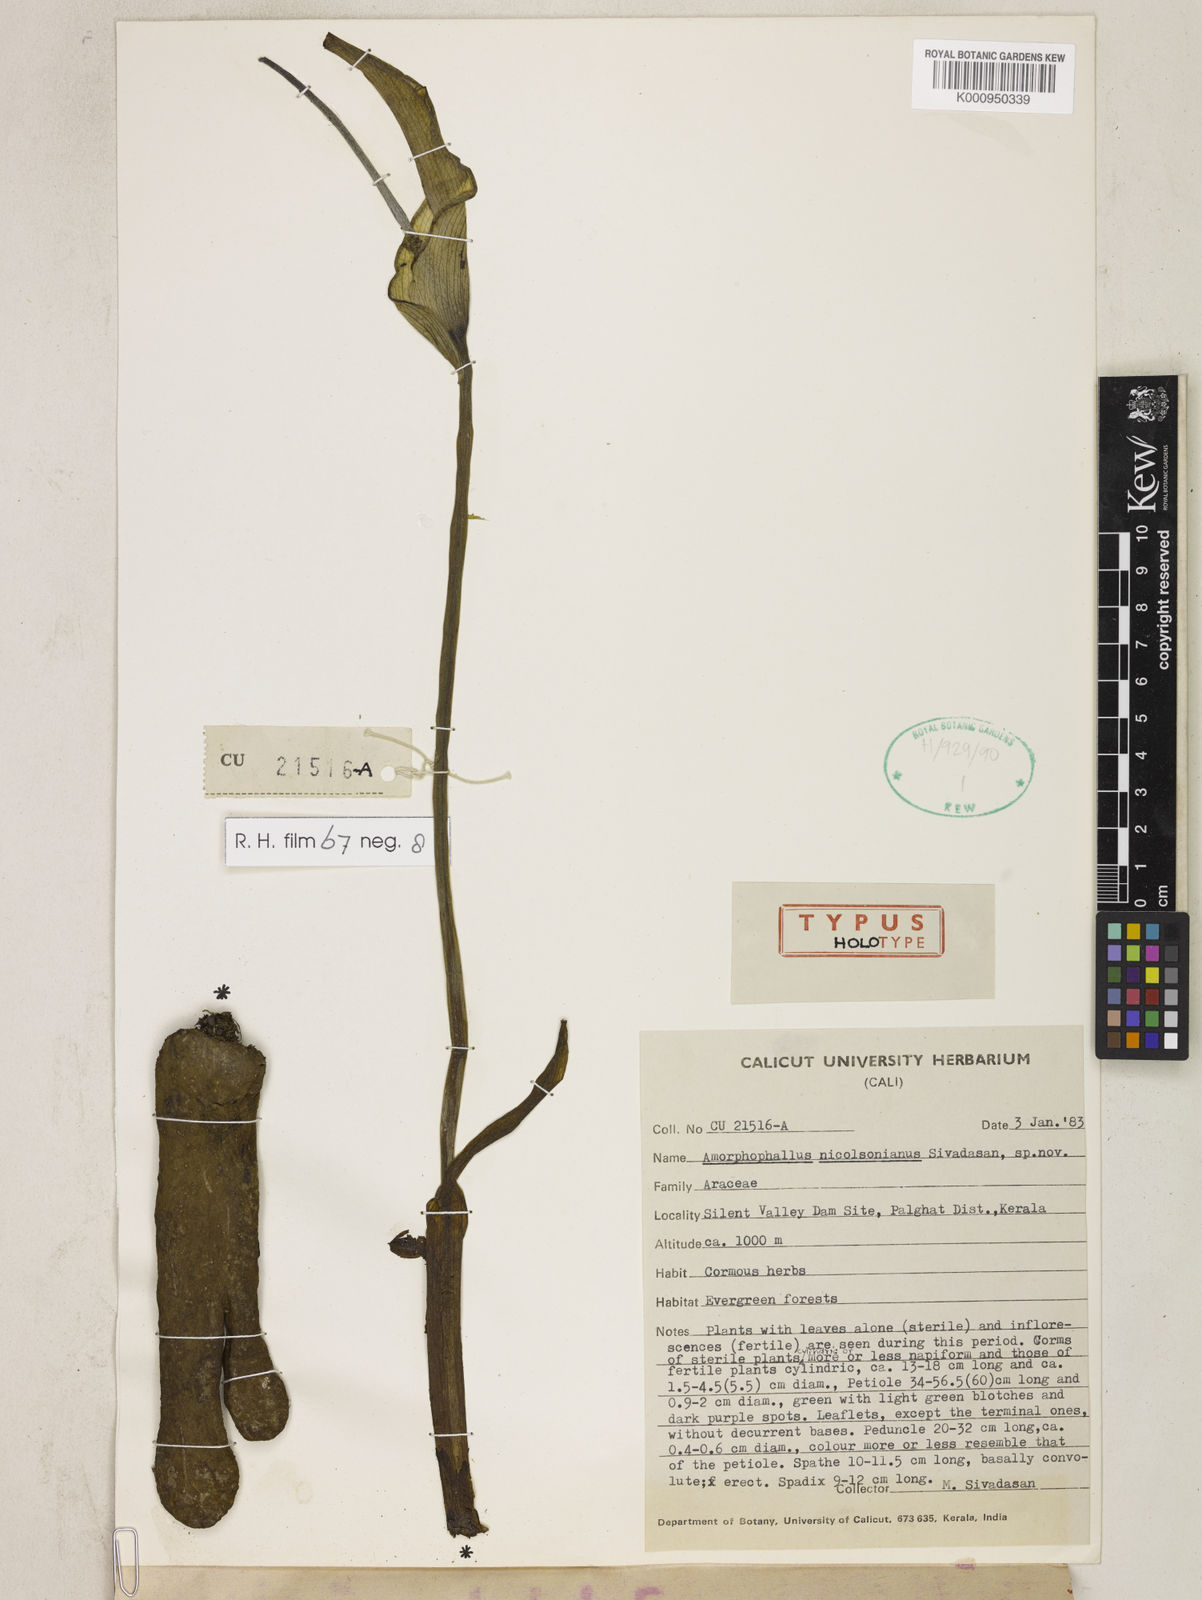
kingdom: Plantae
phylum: Tracheophyta
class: Liliopsida
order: Alismatales
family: Araceae
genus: Amorphophallus
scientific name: Amorphophallus nicolsonianus
